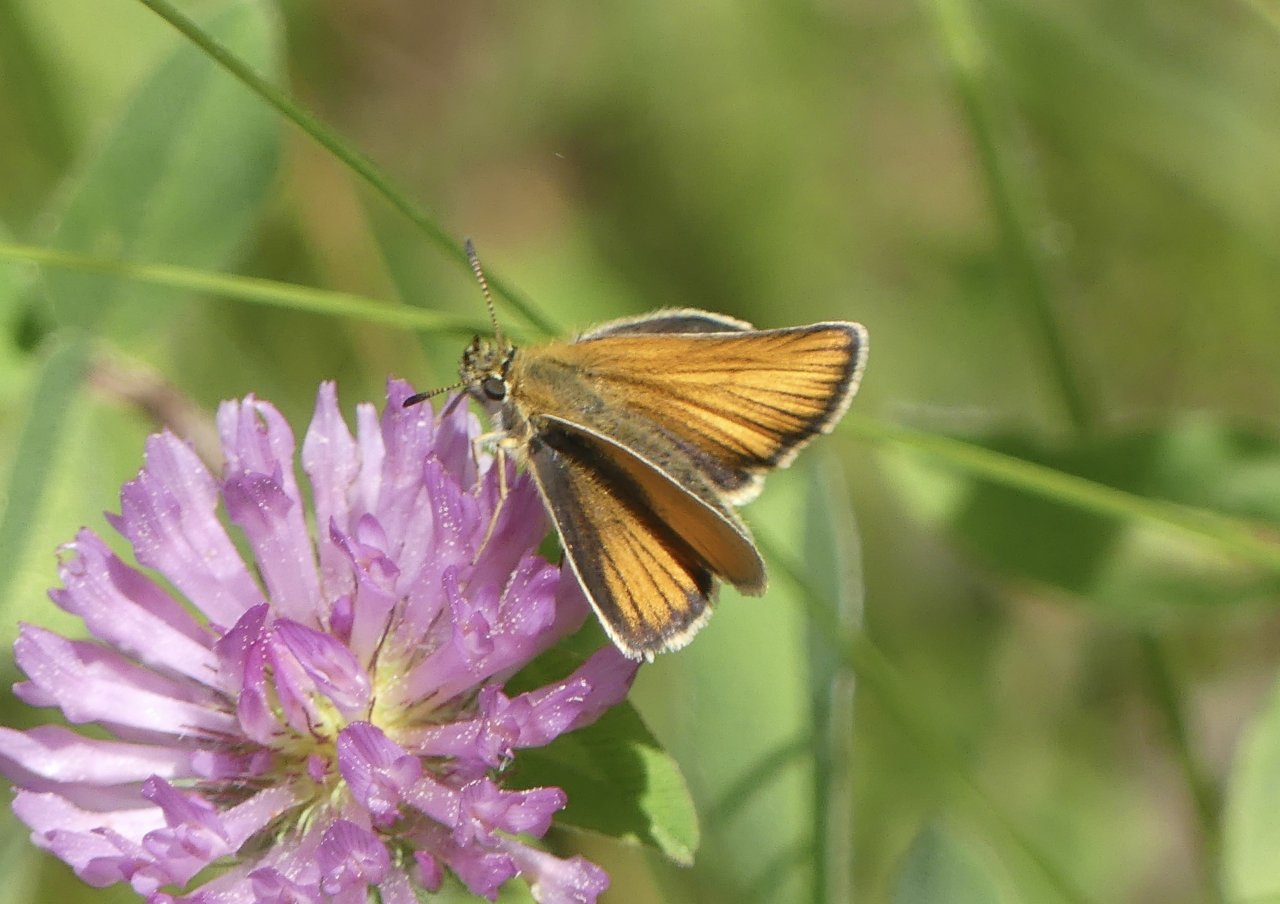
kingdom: Animalia
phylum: Arthropoda
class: Insecta
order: Lepidoptera
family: Hesperiidae
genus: Thymelicus
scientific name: Thymelicus lineola
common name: European Skipper
